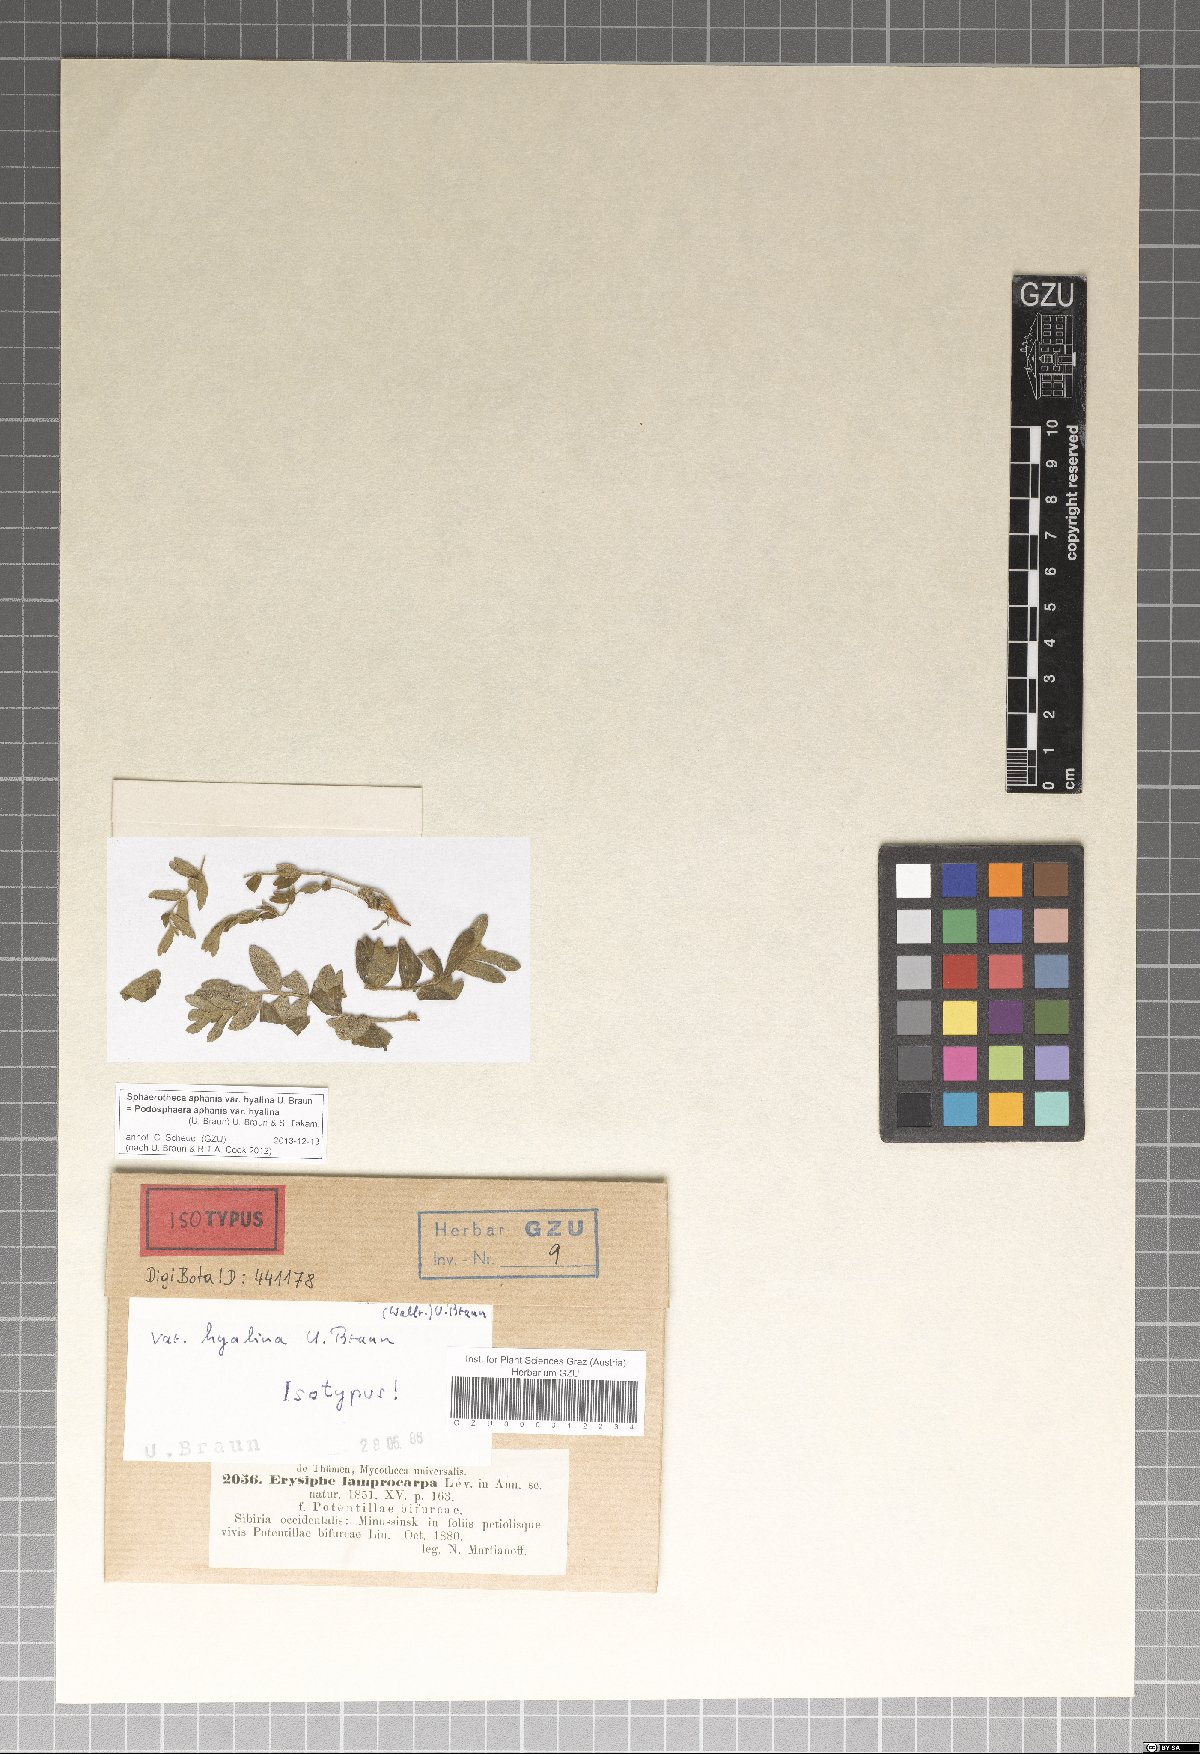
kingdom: Fungi
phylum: Ascomycota
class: Leotiomycetes
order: Helotiales
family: Erysiphaceae
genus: Podosphaera
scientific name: Podosphaera aphanis
